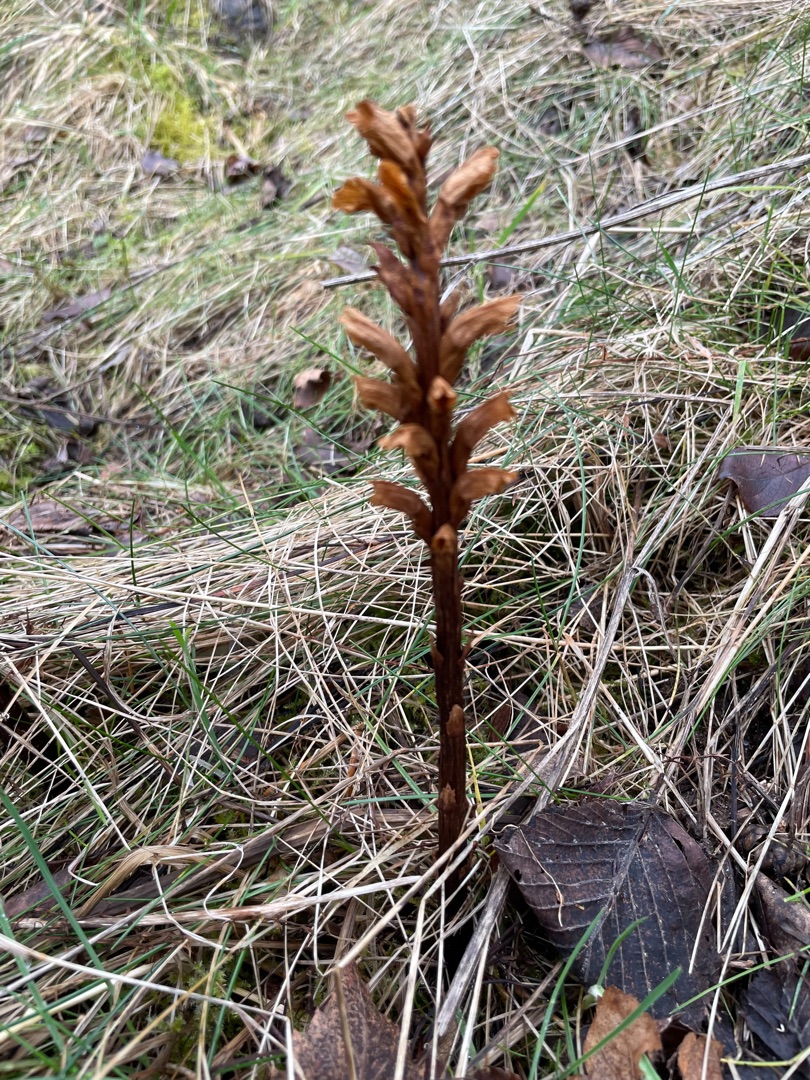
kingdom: Plantae
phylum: Tracheophyta
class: Magnoliopsida
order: Lamiales
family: Orobanchaceae
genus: Orobanche
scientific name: Orobanche elatior
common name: Stor gyvelkvæler
